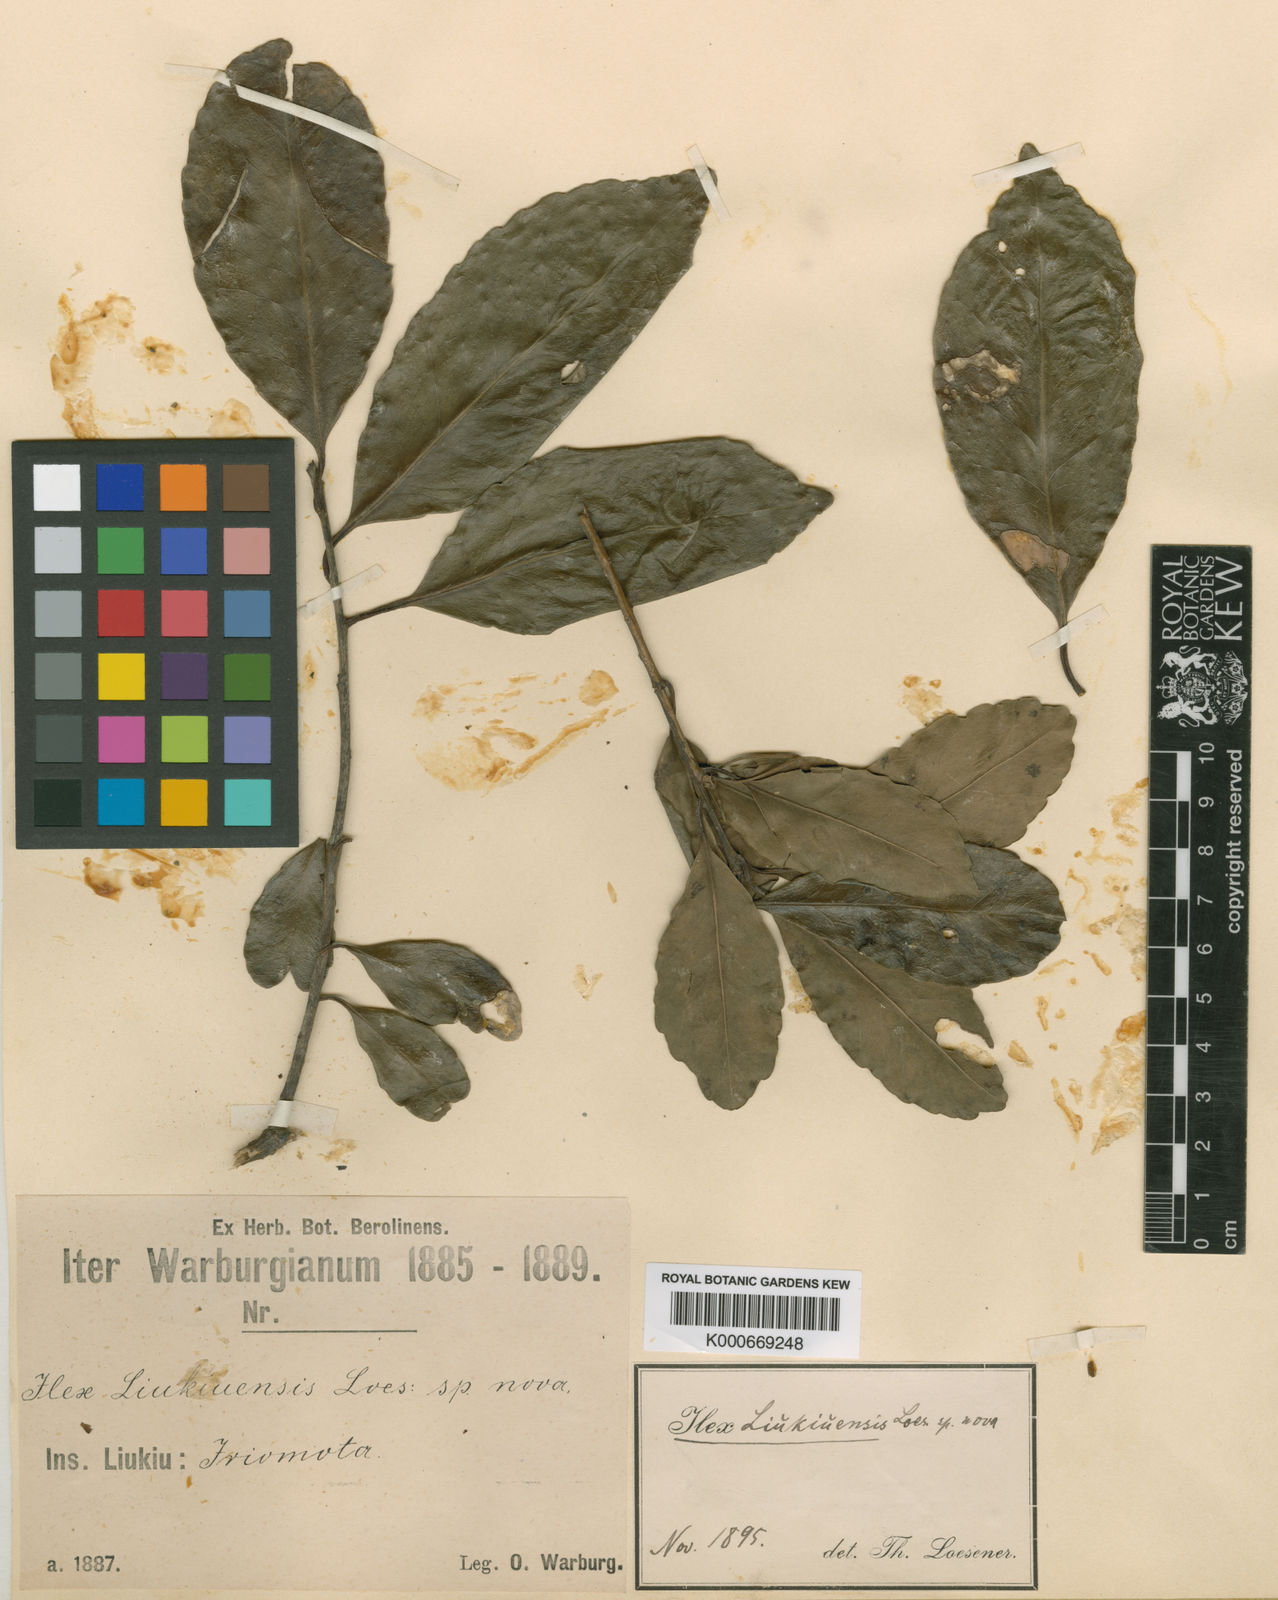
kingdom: Plantae
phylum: Tracheophyta
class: Magnoliopsida
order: Aquifoliales
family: Aquifoliaceae
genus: Ilex
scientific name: Ilex liukiuensis
